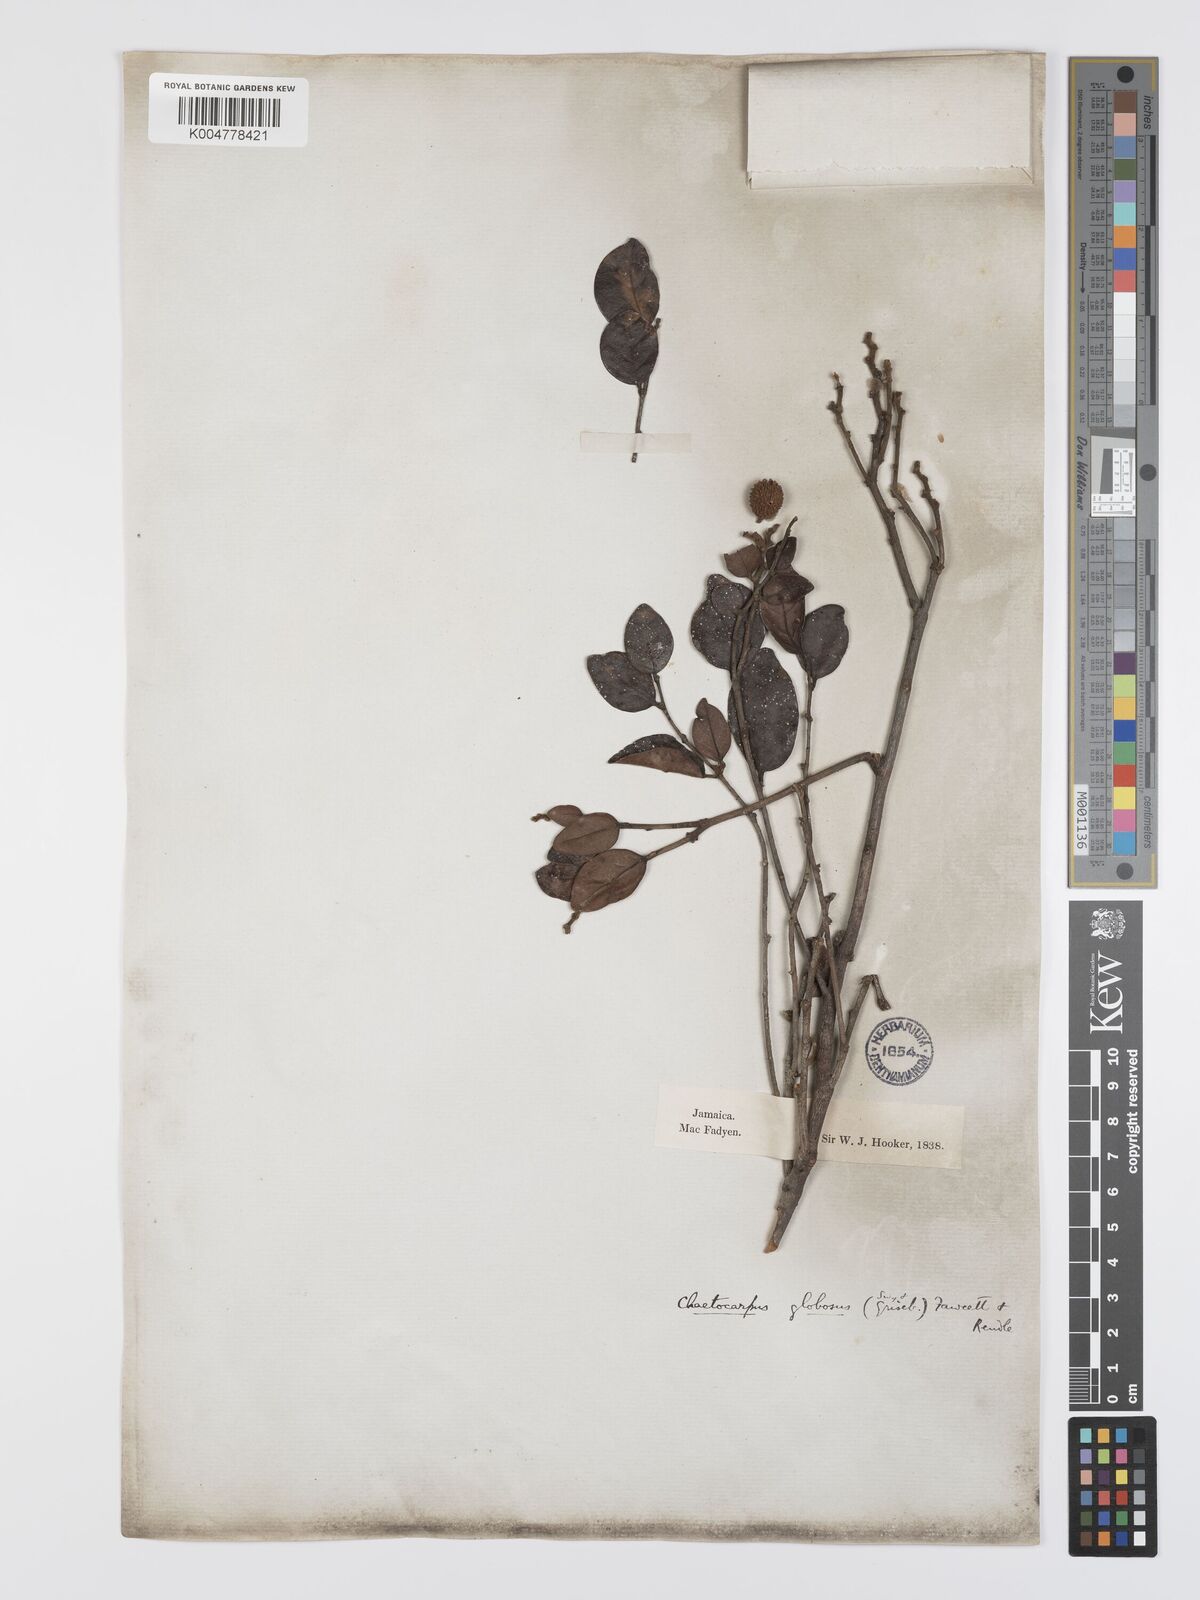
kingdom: Plantae
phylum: Tracheophyta
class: Magnoliopsida
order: Malpighiales
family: Peraceae
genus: Chaetocarpus
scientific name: Chaetocarpus globosus
